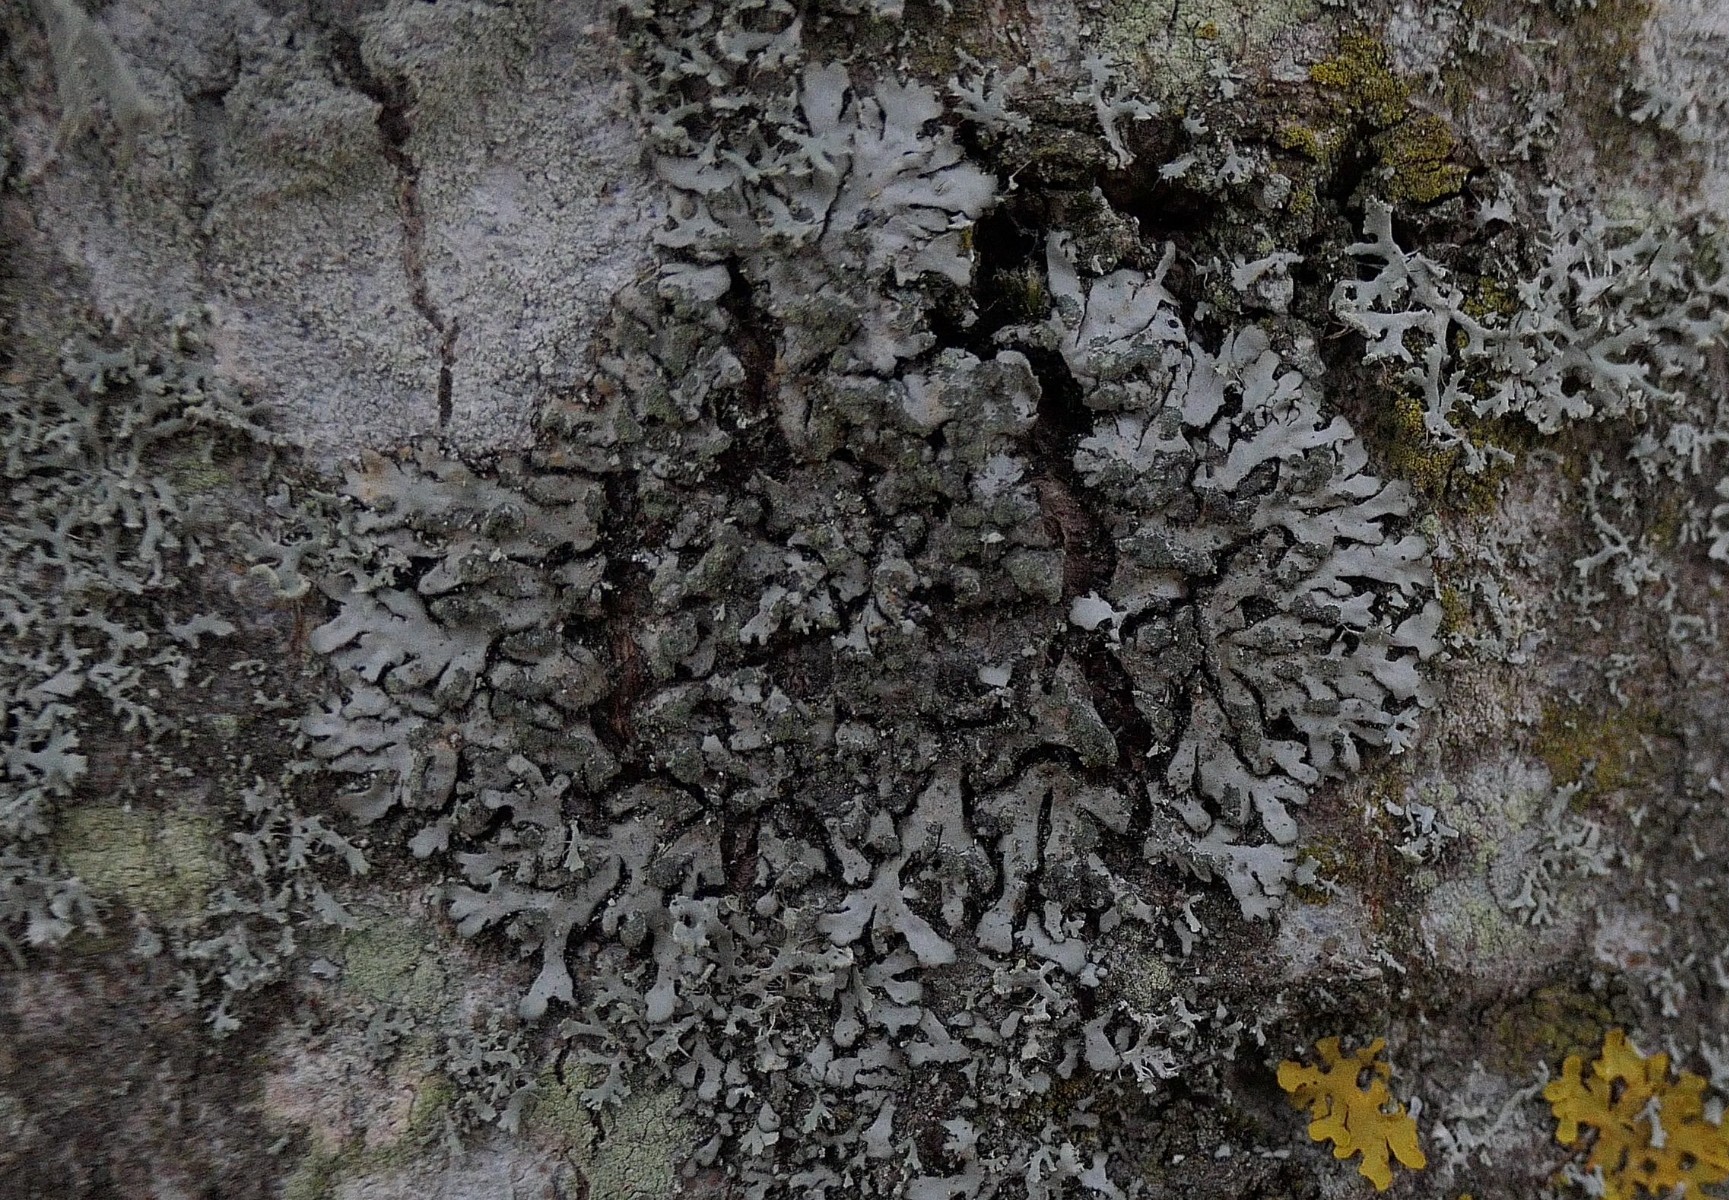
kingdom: Fungi
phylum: Ascomycota
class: Lecanoromycetes
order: Caliciales
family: Physciaceae
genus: Phaeophyscia
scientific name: Phaeophyscia orbicularis
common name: grågrøn rosetlav
